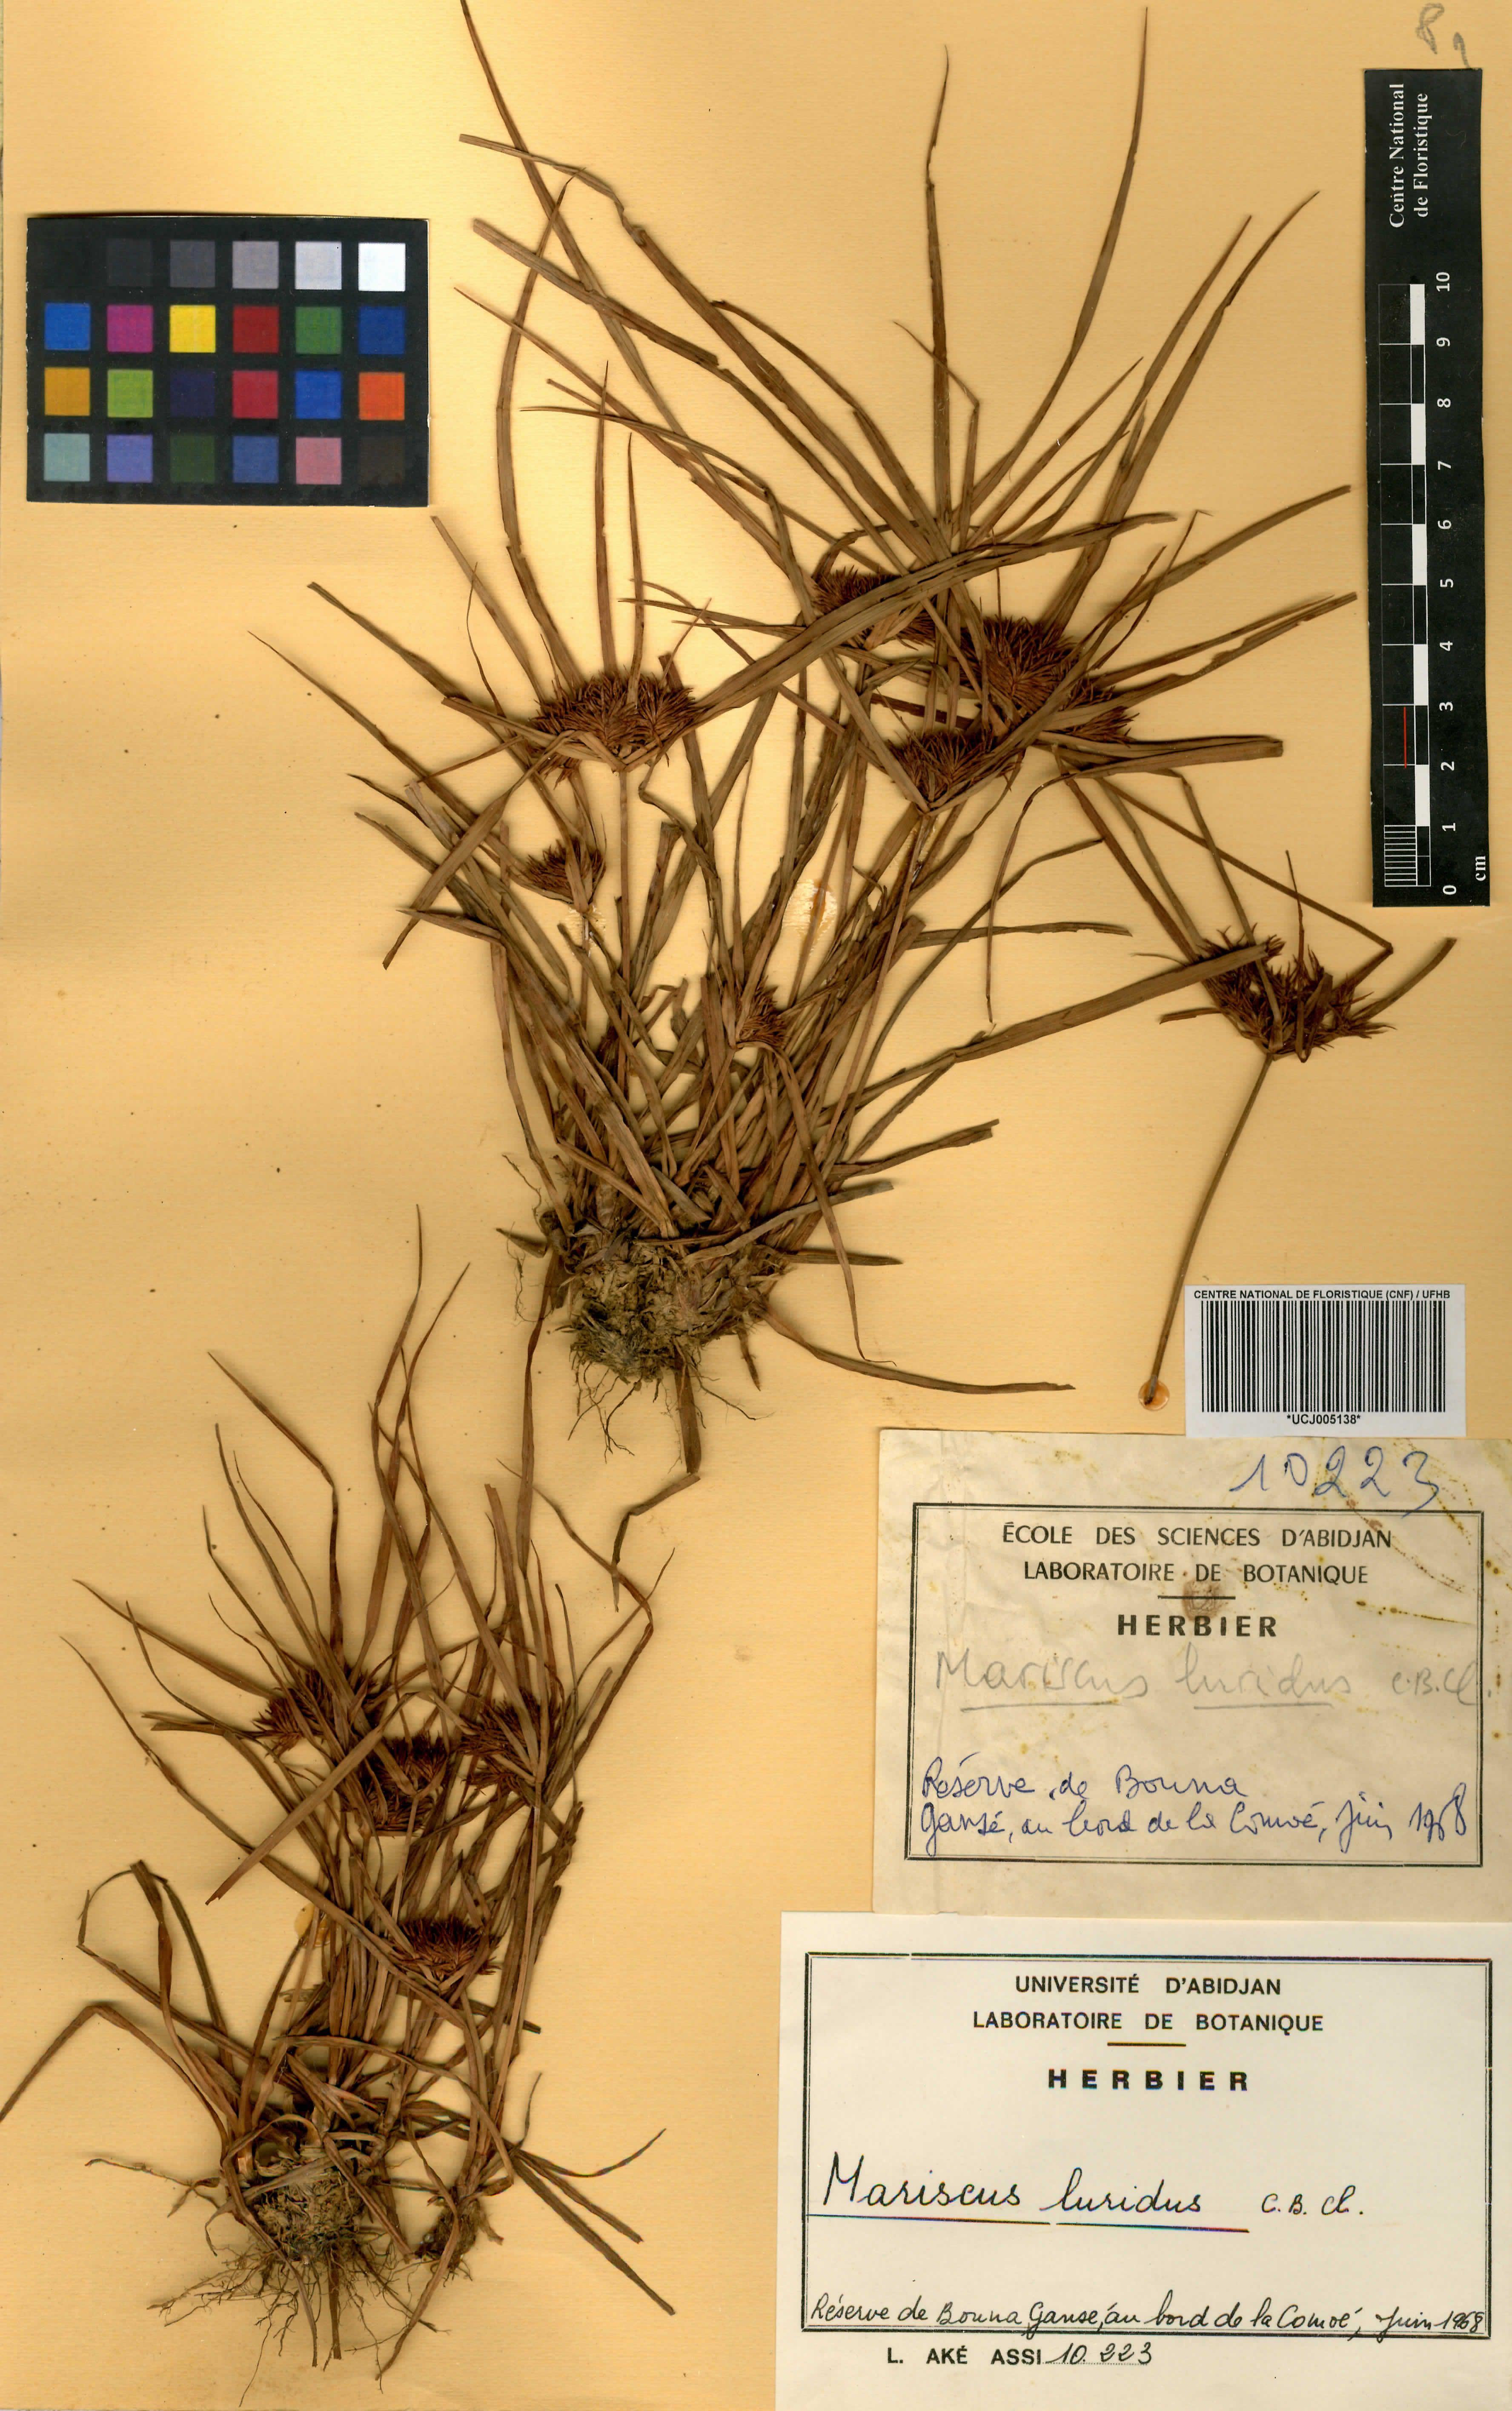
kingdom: Plantae
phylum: Tracheophyta
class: Liliopsida
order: Poales
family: Cyperaceae
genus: Cladium
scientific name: Cladium Mariscus luridus
